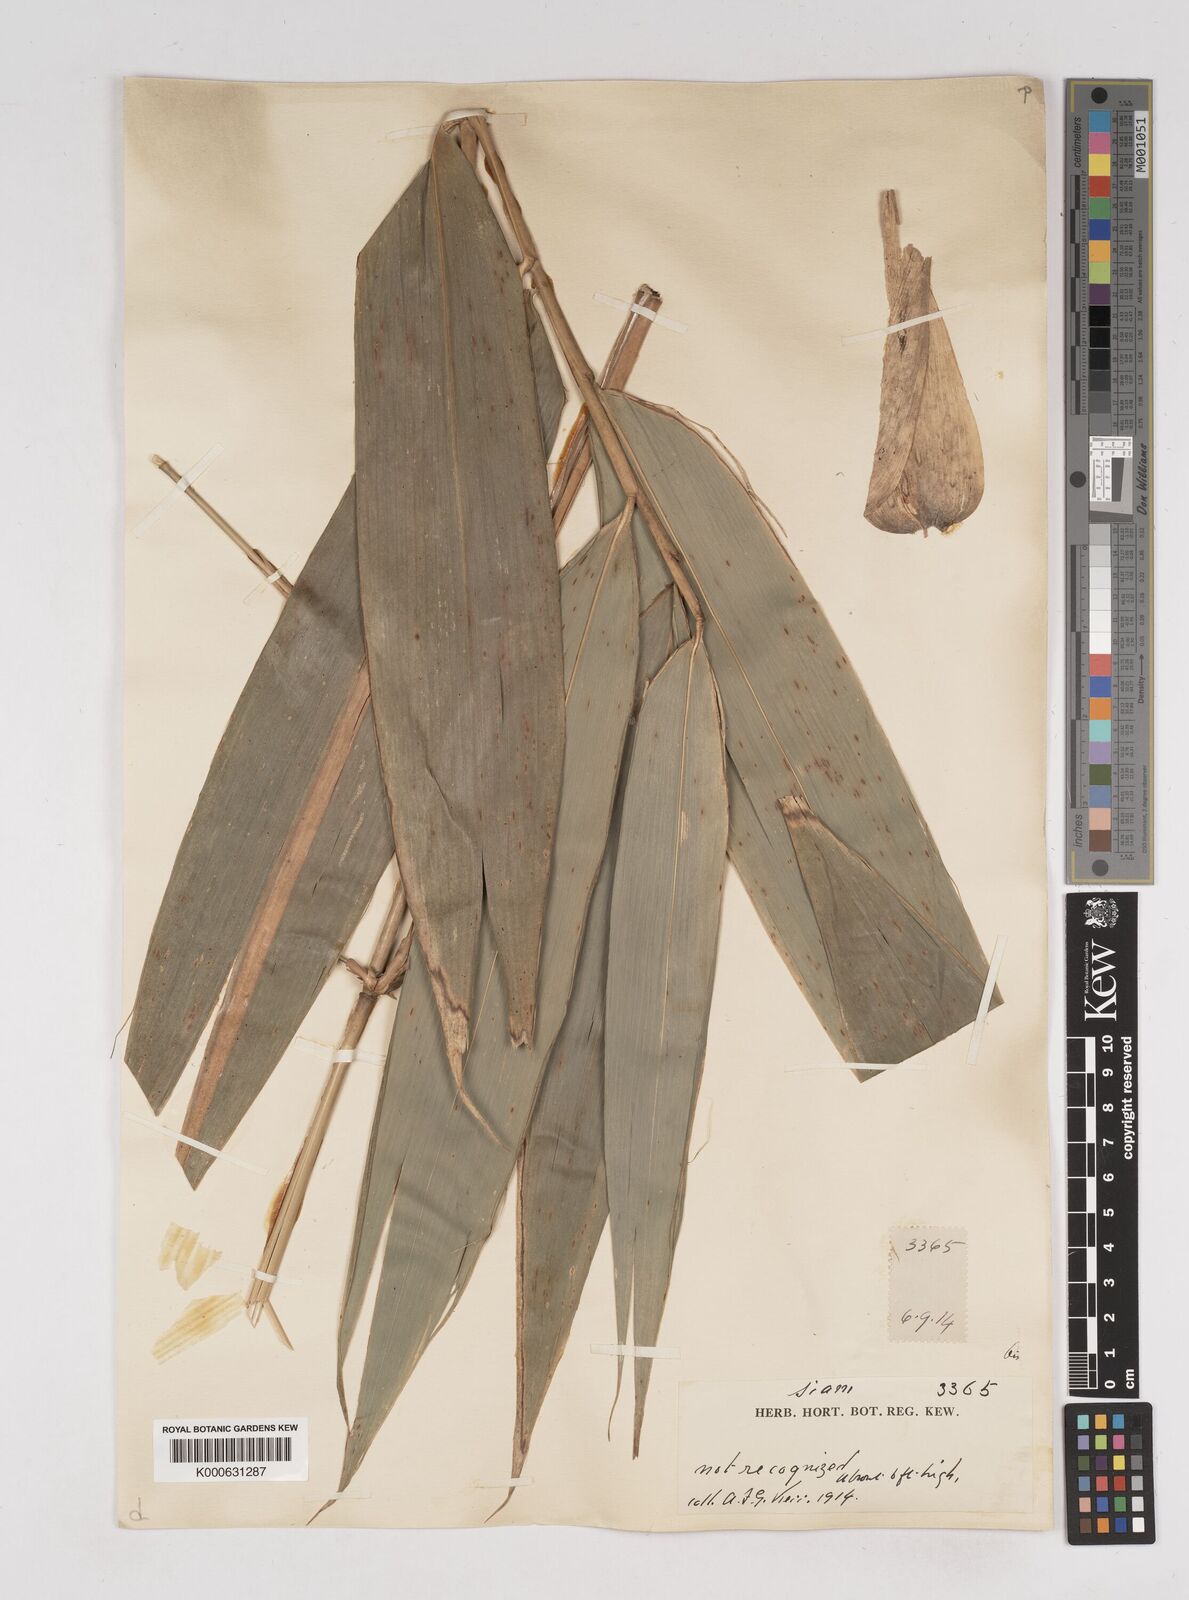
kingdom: Plantae
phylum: Tracheophyta
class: Liliopsida
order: Poales
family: Poaceae
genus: Gigantochloa
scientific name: Gigantochloa
